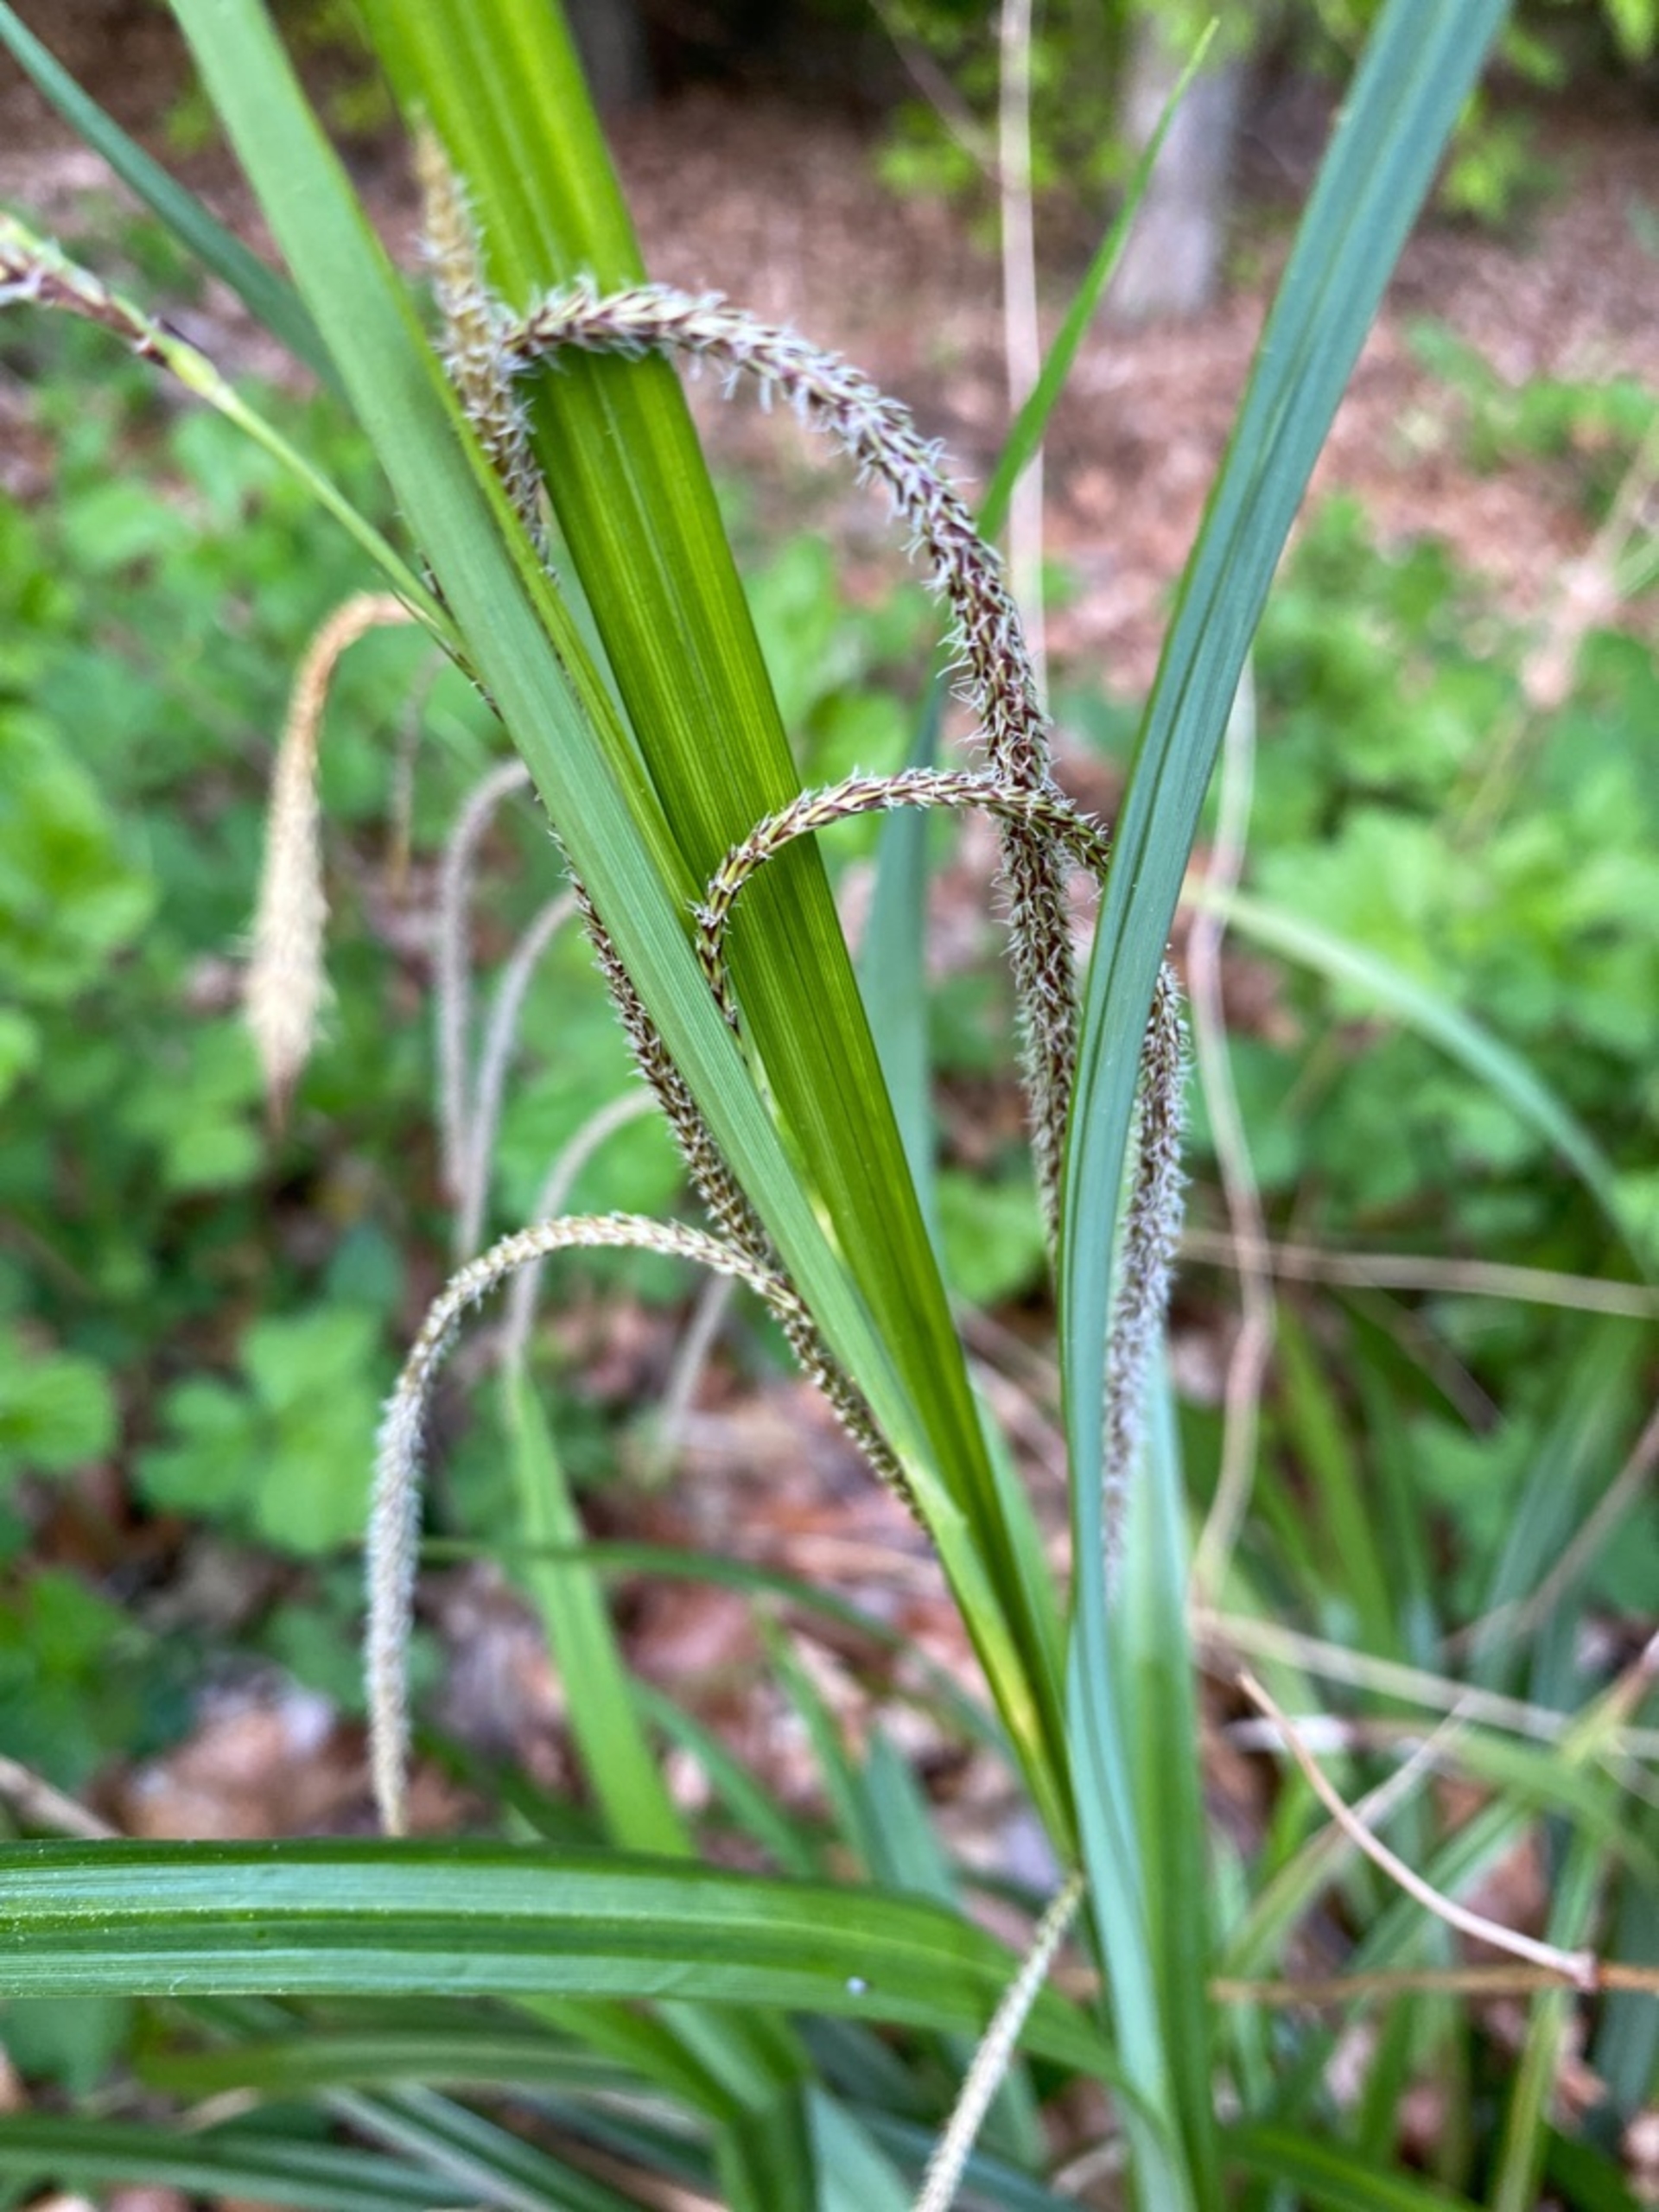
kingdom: Plantae
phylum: Tracheophyta
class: Liliopsida
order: Poales
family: Cyperaceae
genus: Carex
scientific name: Carex pendula
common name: Kæmpe-star
